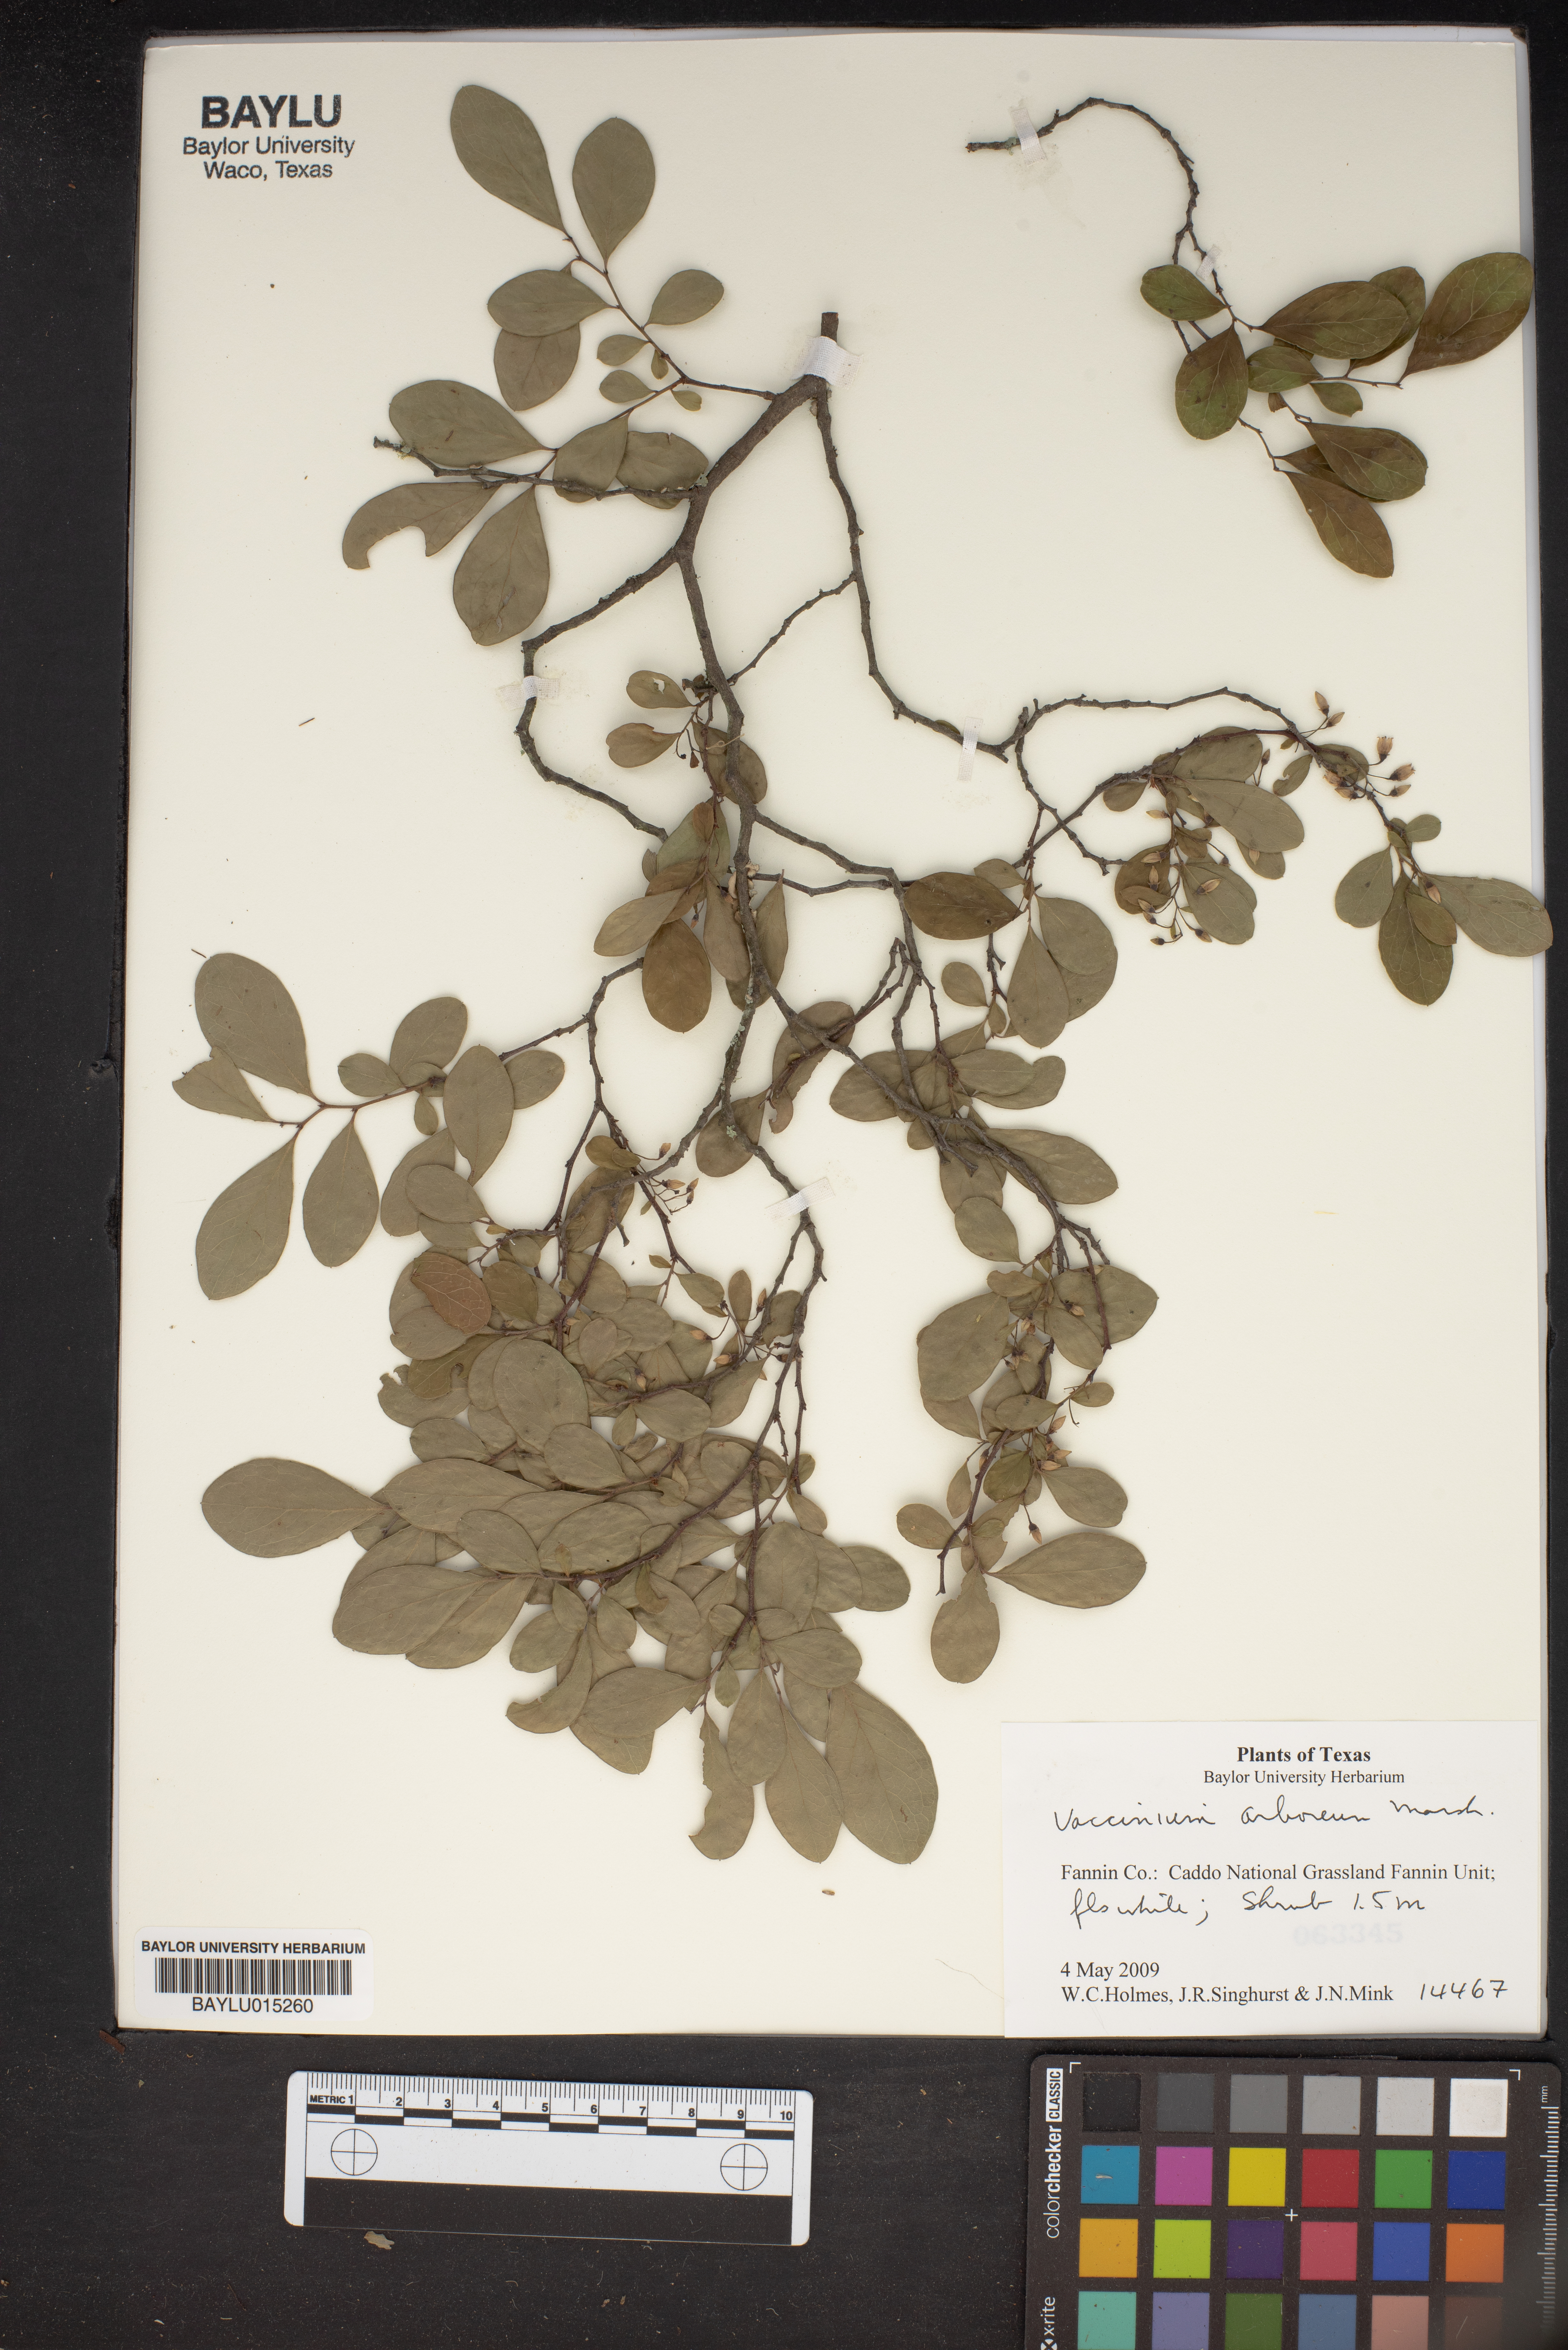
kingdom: Plantae
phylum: Tracheophyta
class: Magnoliopsida
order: Ericales
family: Ericaceae
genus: Vaccinium
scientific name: Vaccinium arboreum
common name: Farkleberry
